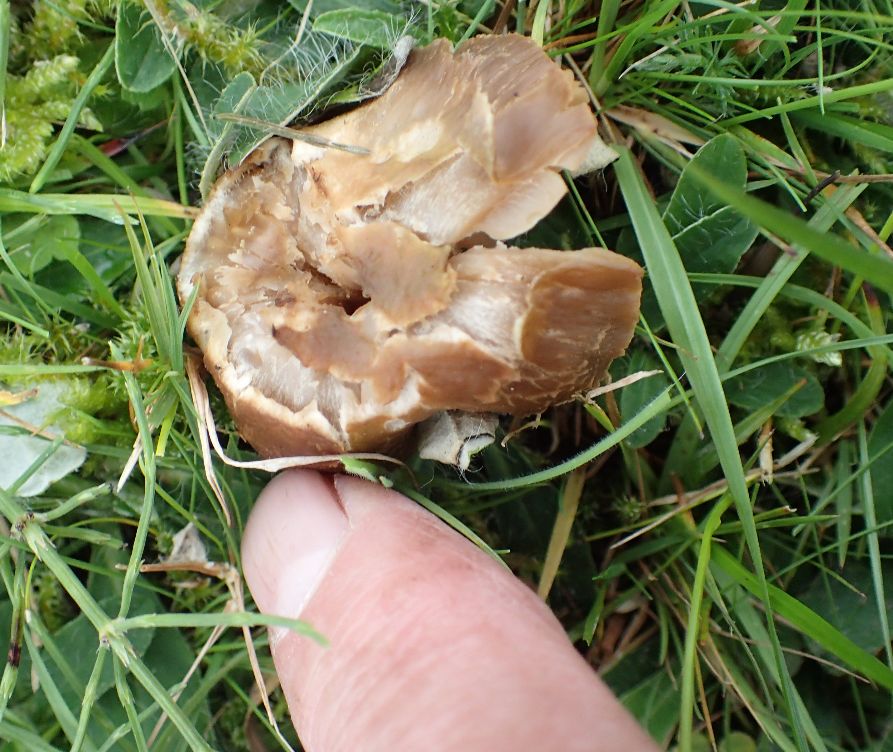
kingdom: Fungi
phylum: Basidiomycota
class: Agaricomycetes
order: Agaricales
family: Clavariaceae
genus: Camarophyllopsis
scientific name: Camarophyllopsis schulzeri
